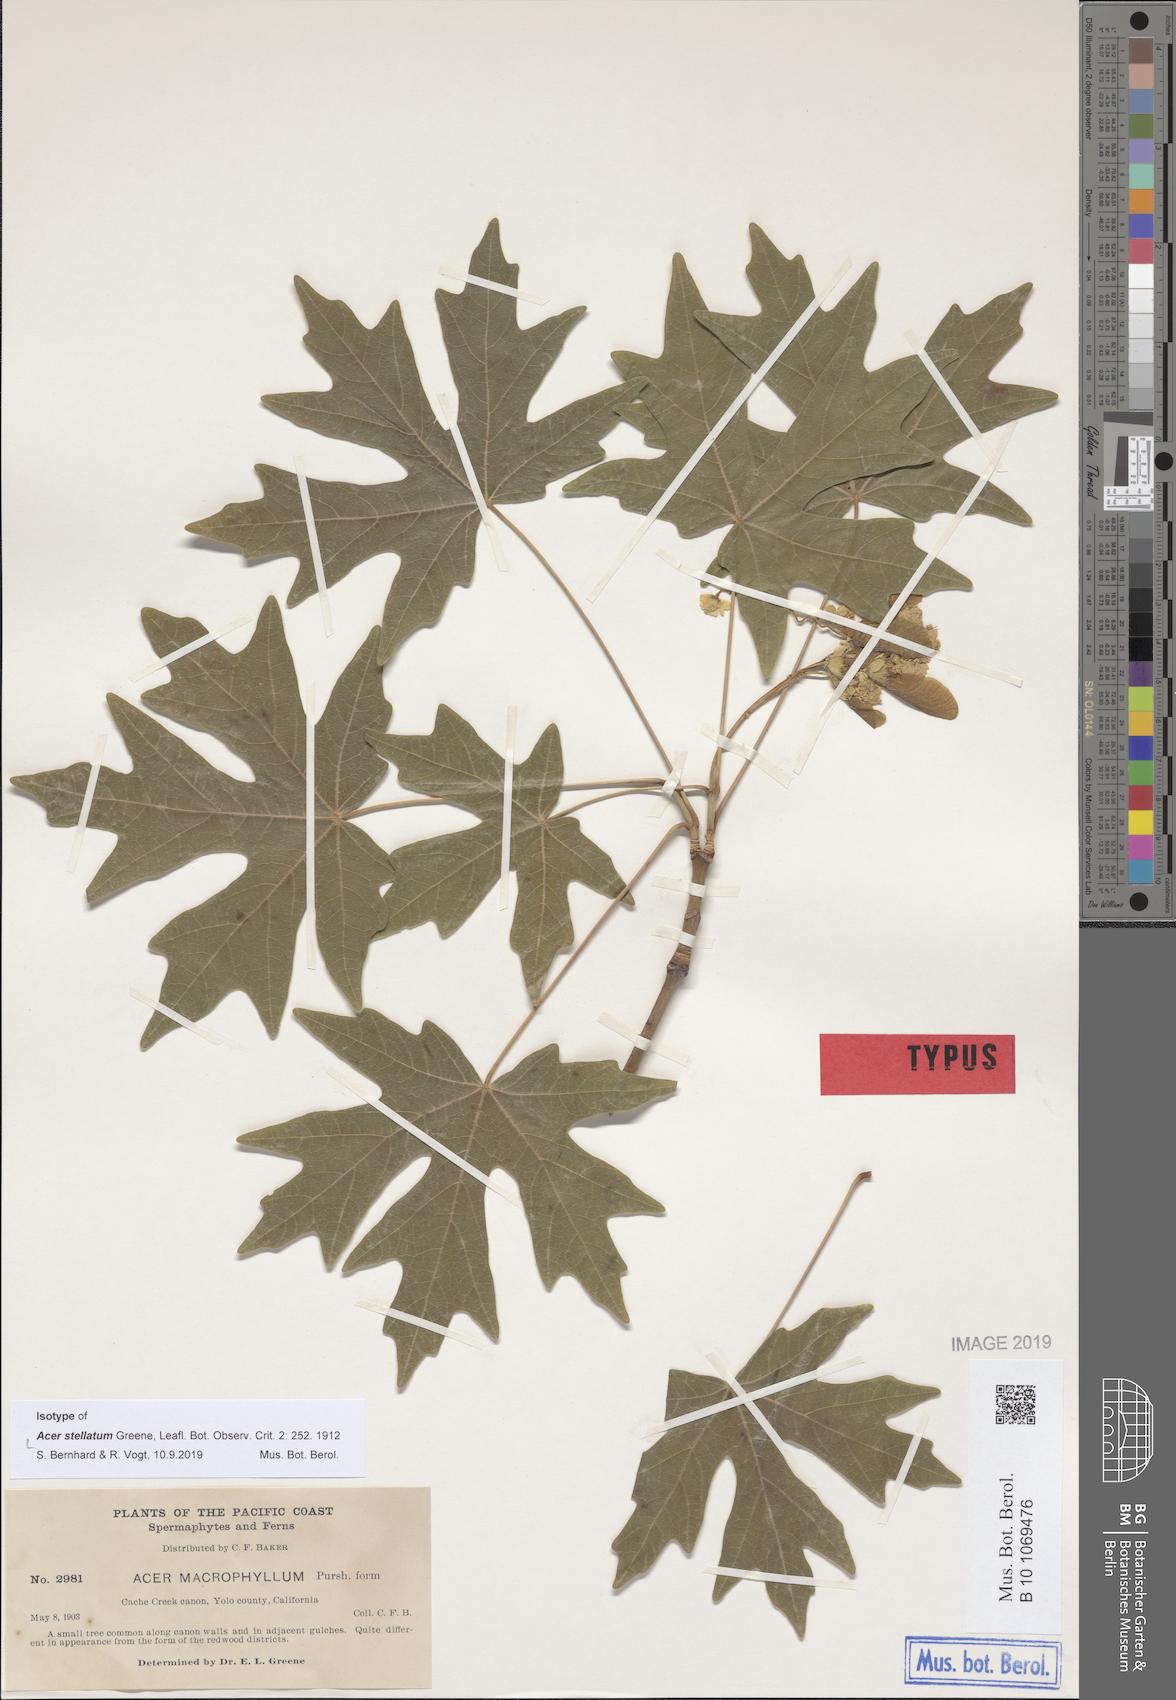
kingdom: Plantae
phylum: Tracheophyta
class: Magnoliopsida
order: Sapindales
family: Sapindaceae
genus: Acer
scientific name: Acer macrophyllum
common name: Oregon maple
